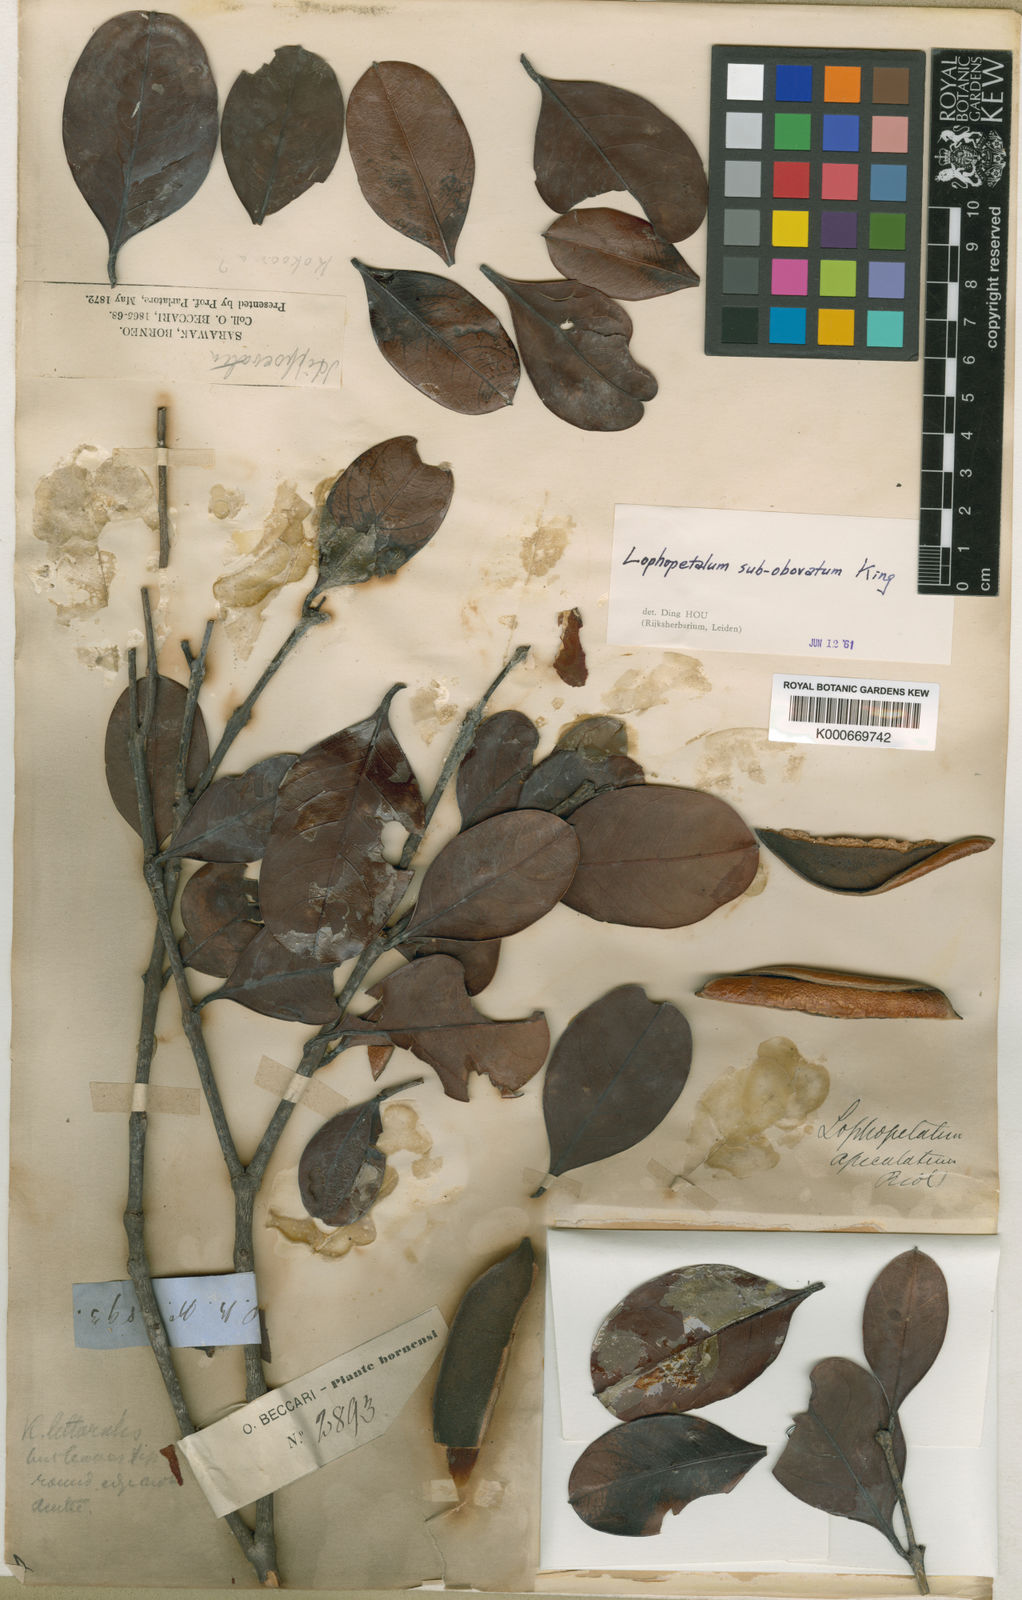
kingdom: Plantae
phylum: Tracheophyta
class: Magnoliopsida
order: Celastrales
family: Celastraceae
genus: Lophopetalum
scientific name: Lophopetalum subobovatum
